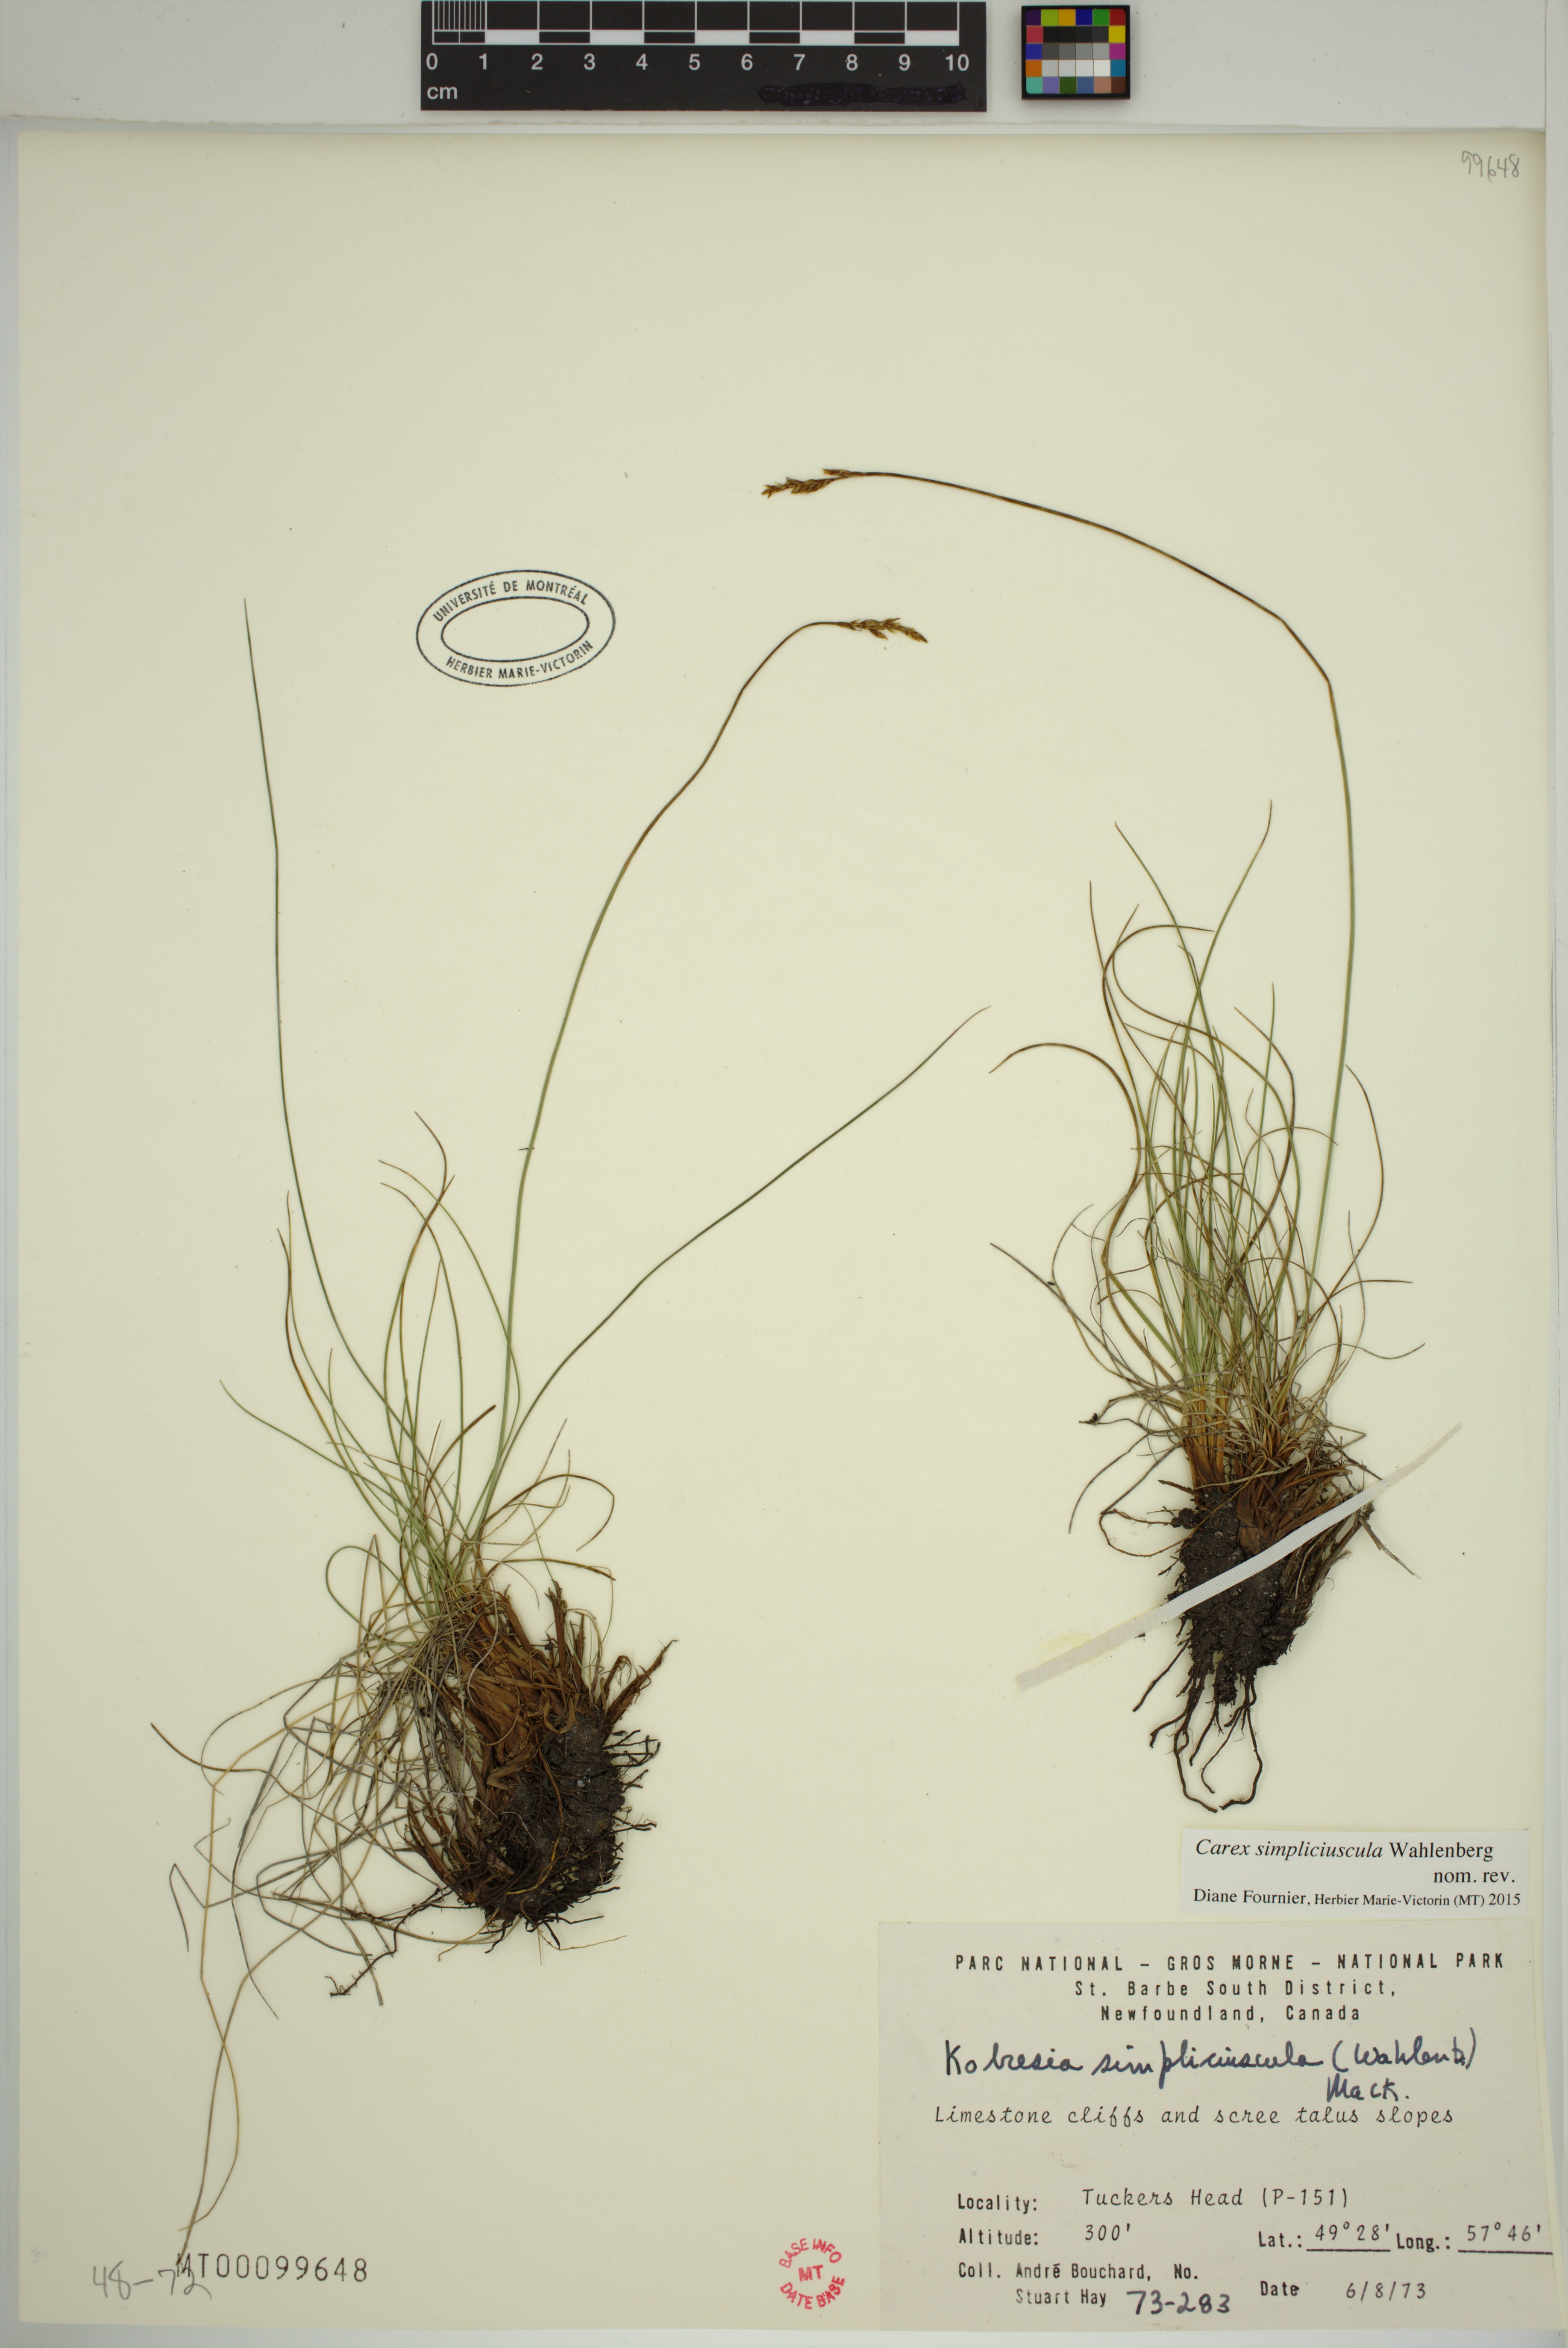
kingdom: Plantae
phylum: Tracheophyta
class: Liliopsida
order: Poales
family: Cyperaceae
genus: Carex
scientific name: Carex simpliciuscula
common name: Simple bog sedge
